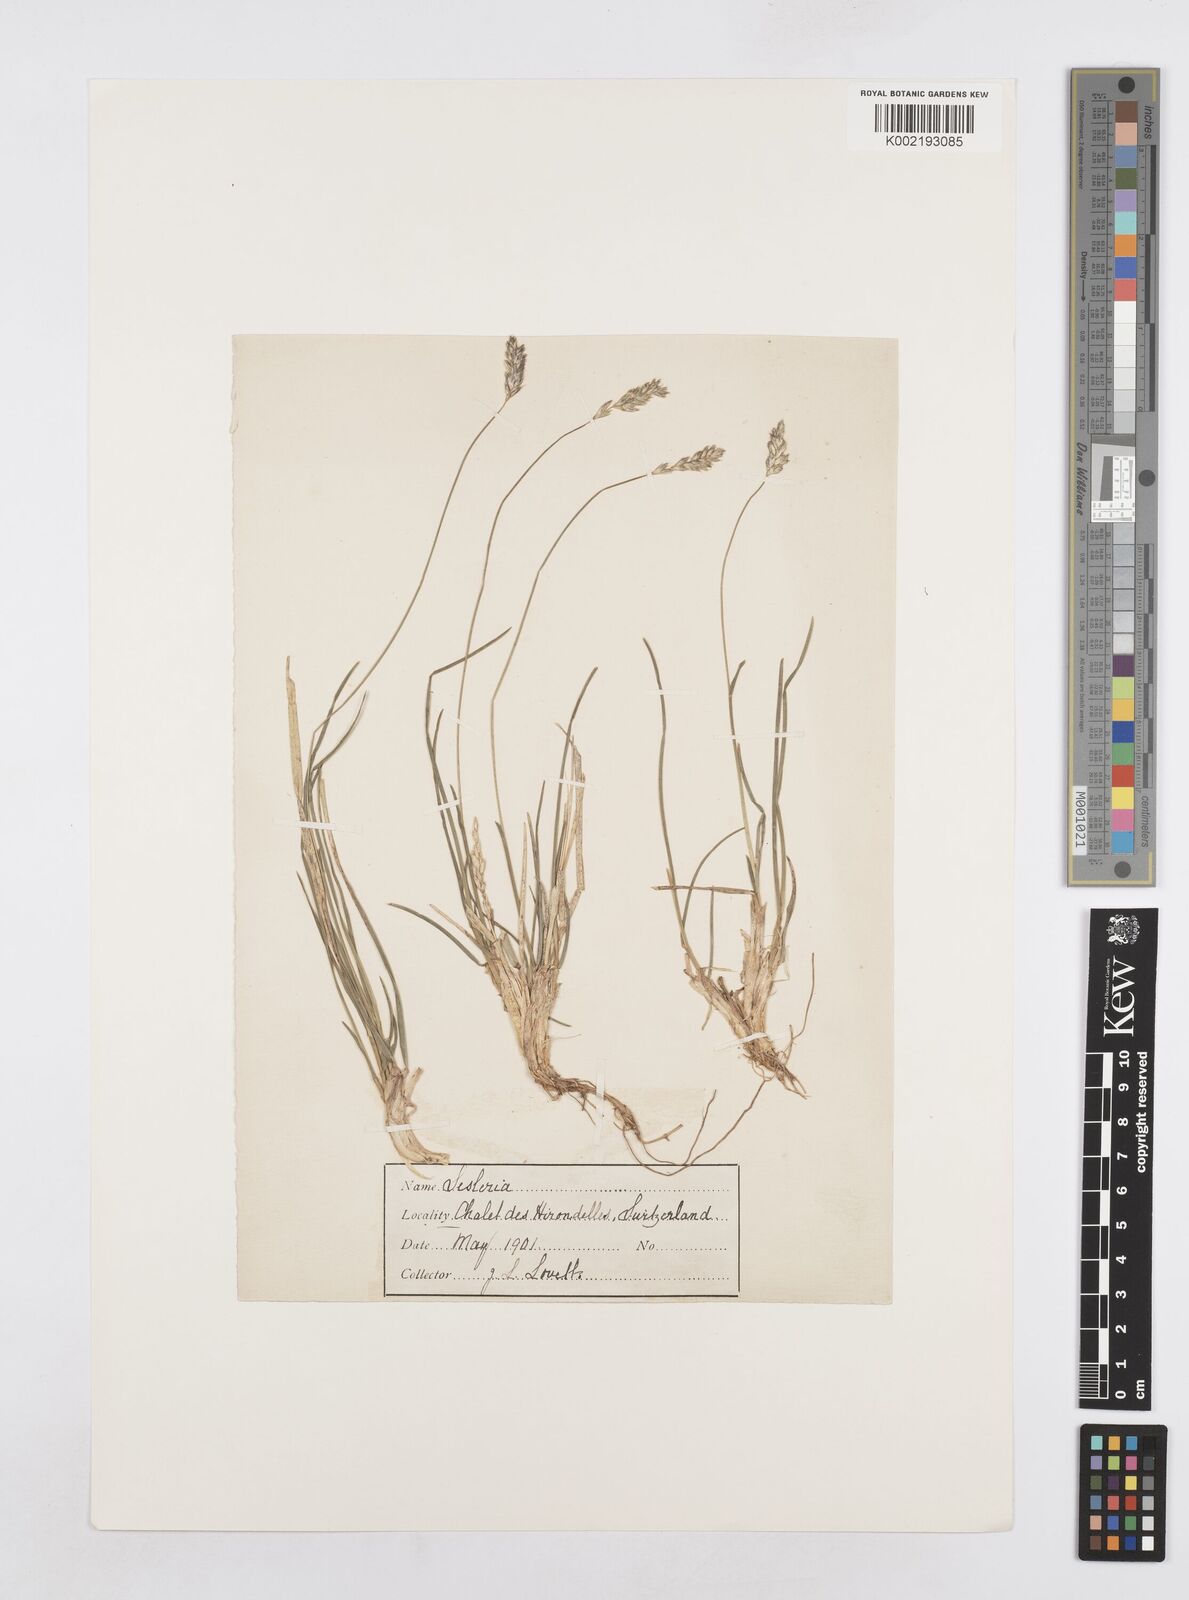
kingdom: Plantae
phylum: Tracheophyta
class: Liliopsida
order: Poales
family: Poaceae
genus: Sesleria
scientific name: Sesleria
